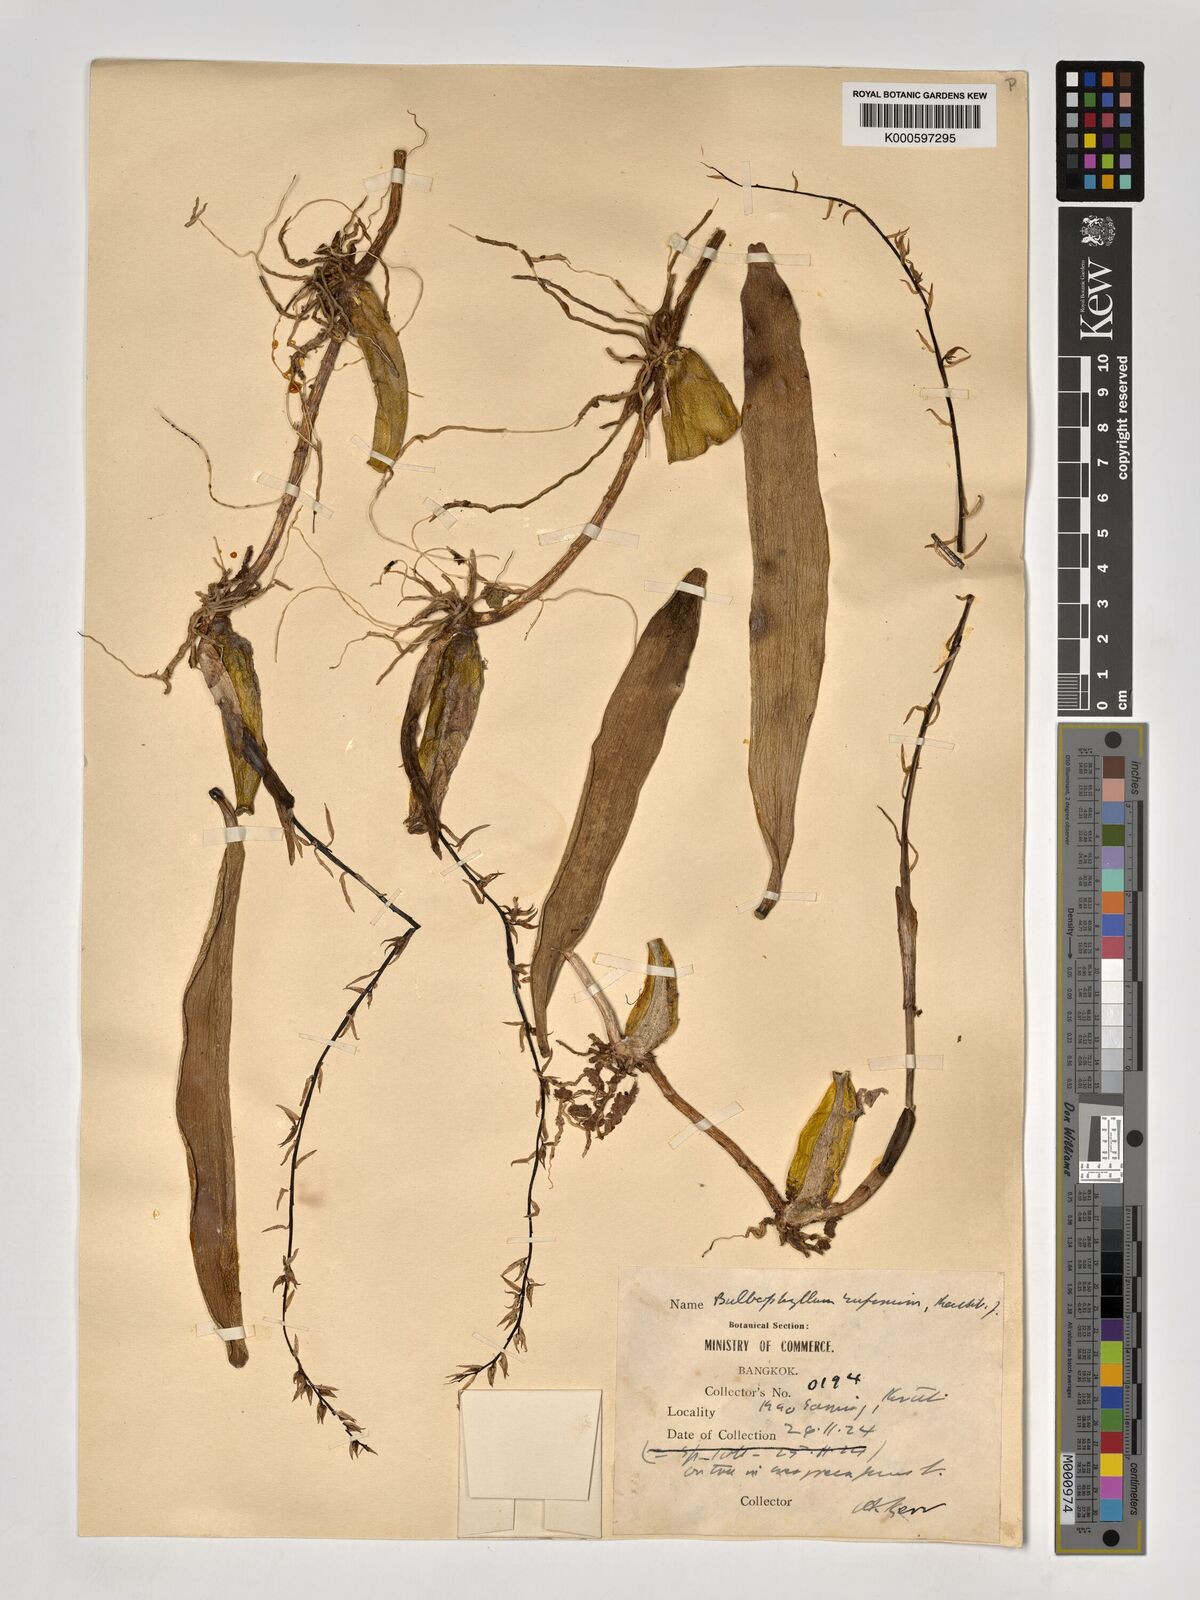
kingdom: Plantae
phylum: Tracheophyta
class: Liliopsida
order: Asparagales
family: Orchidaceae
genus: Bulbophyllum
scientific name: Bulbophyllum rufinum
